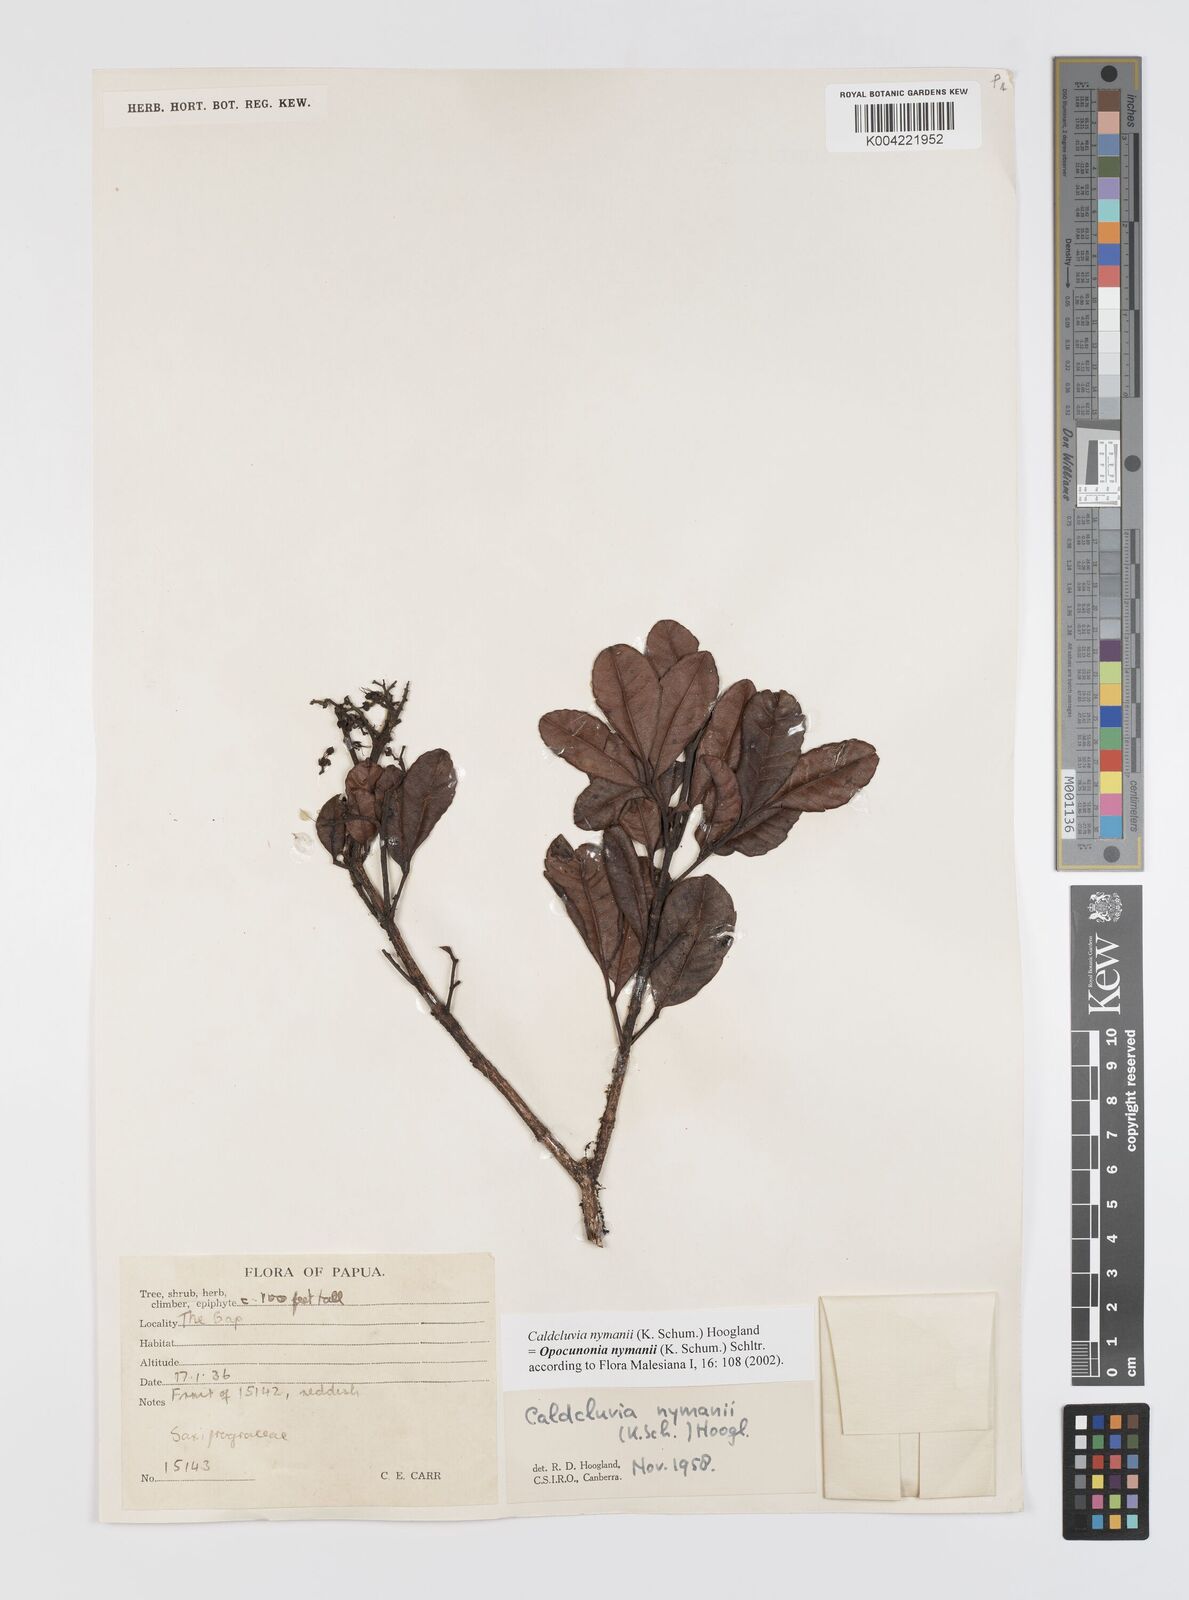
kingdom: Plantae
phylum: Tracheophyta
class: Magnoliopsida
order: Oxalidales
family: Cunoniaceae
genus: Opocunonia
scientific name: Opocunonia nymanii
